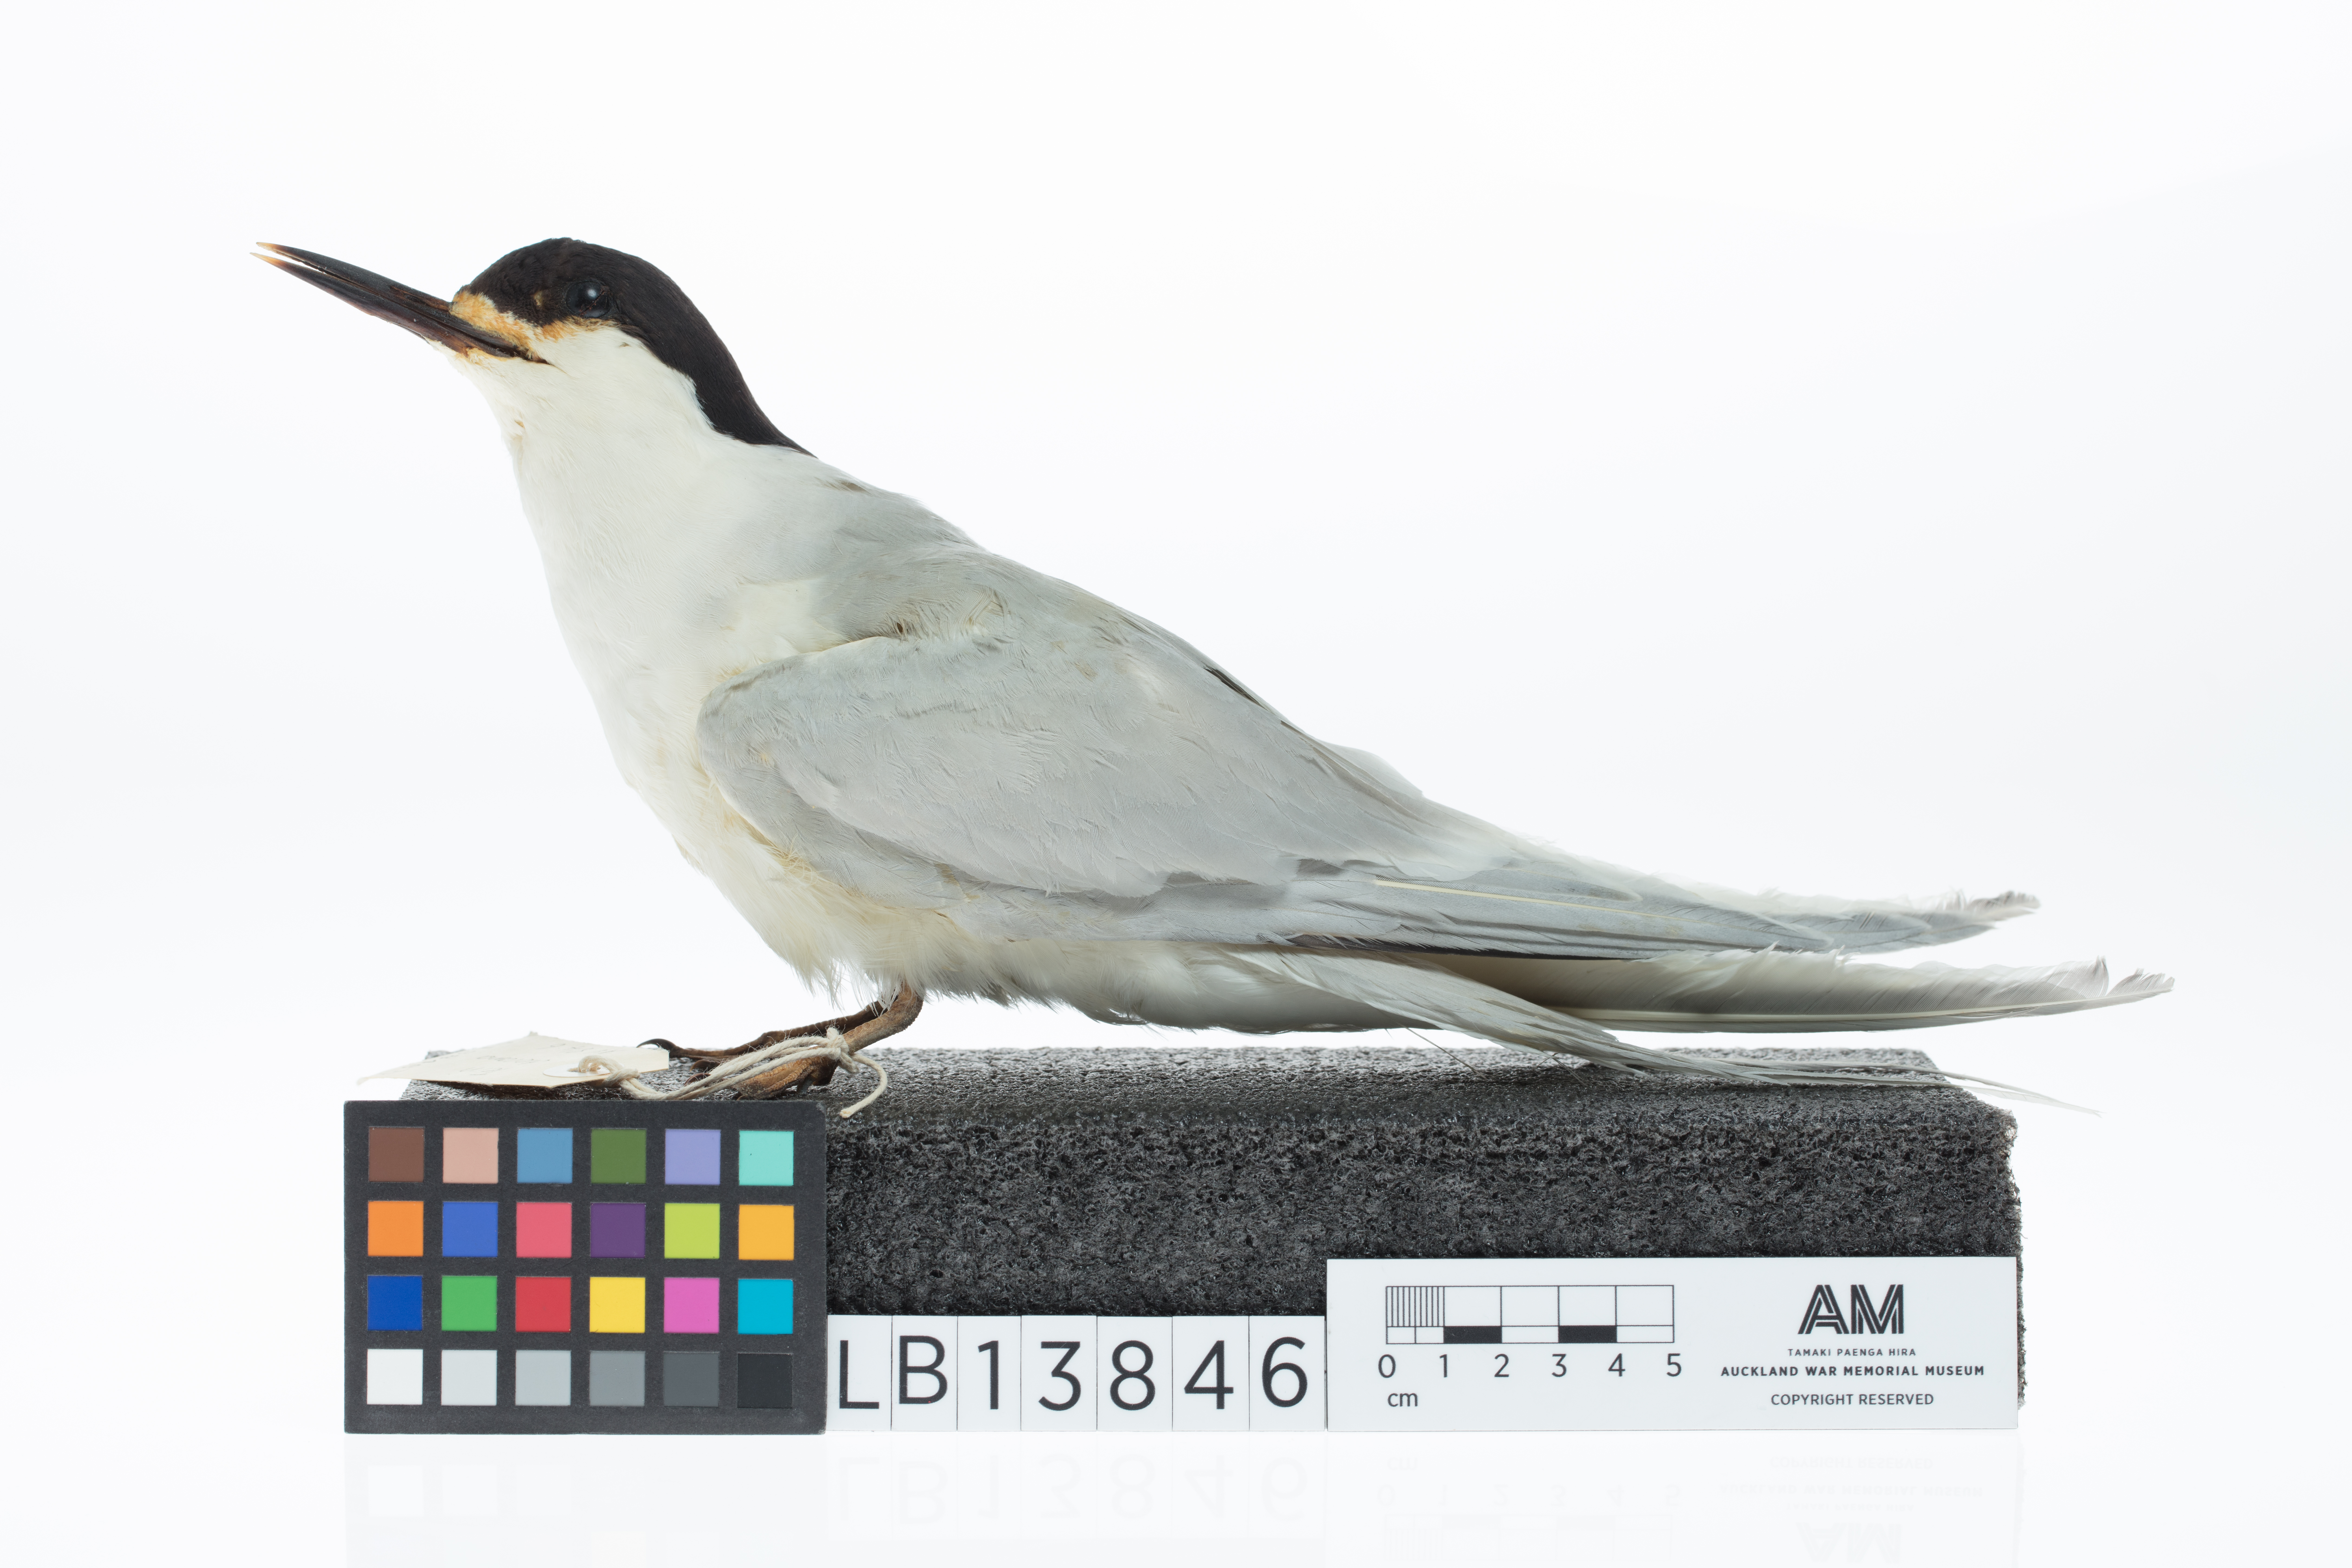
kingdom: Animalia
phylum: Chordata
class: Aves
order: Charadriiformes
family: Laridae
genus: Sterna
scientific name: Sterna striata
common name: White-fronted tern
